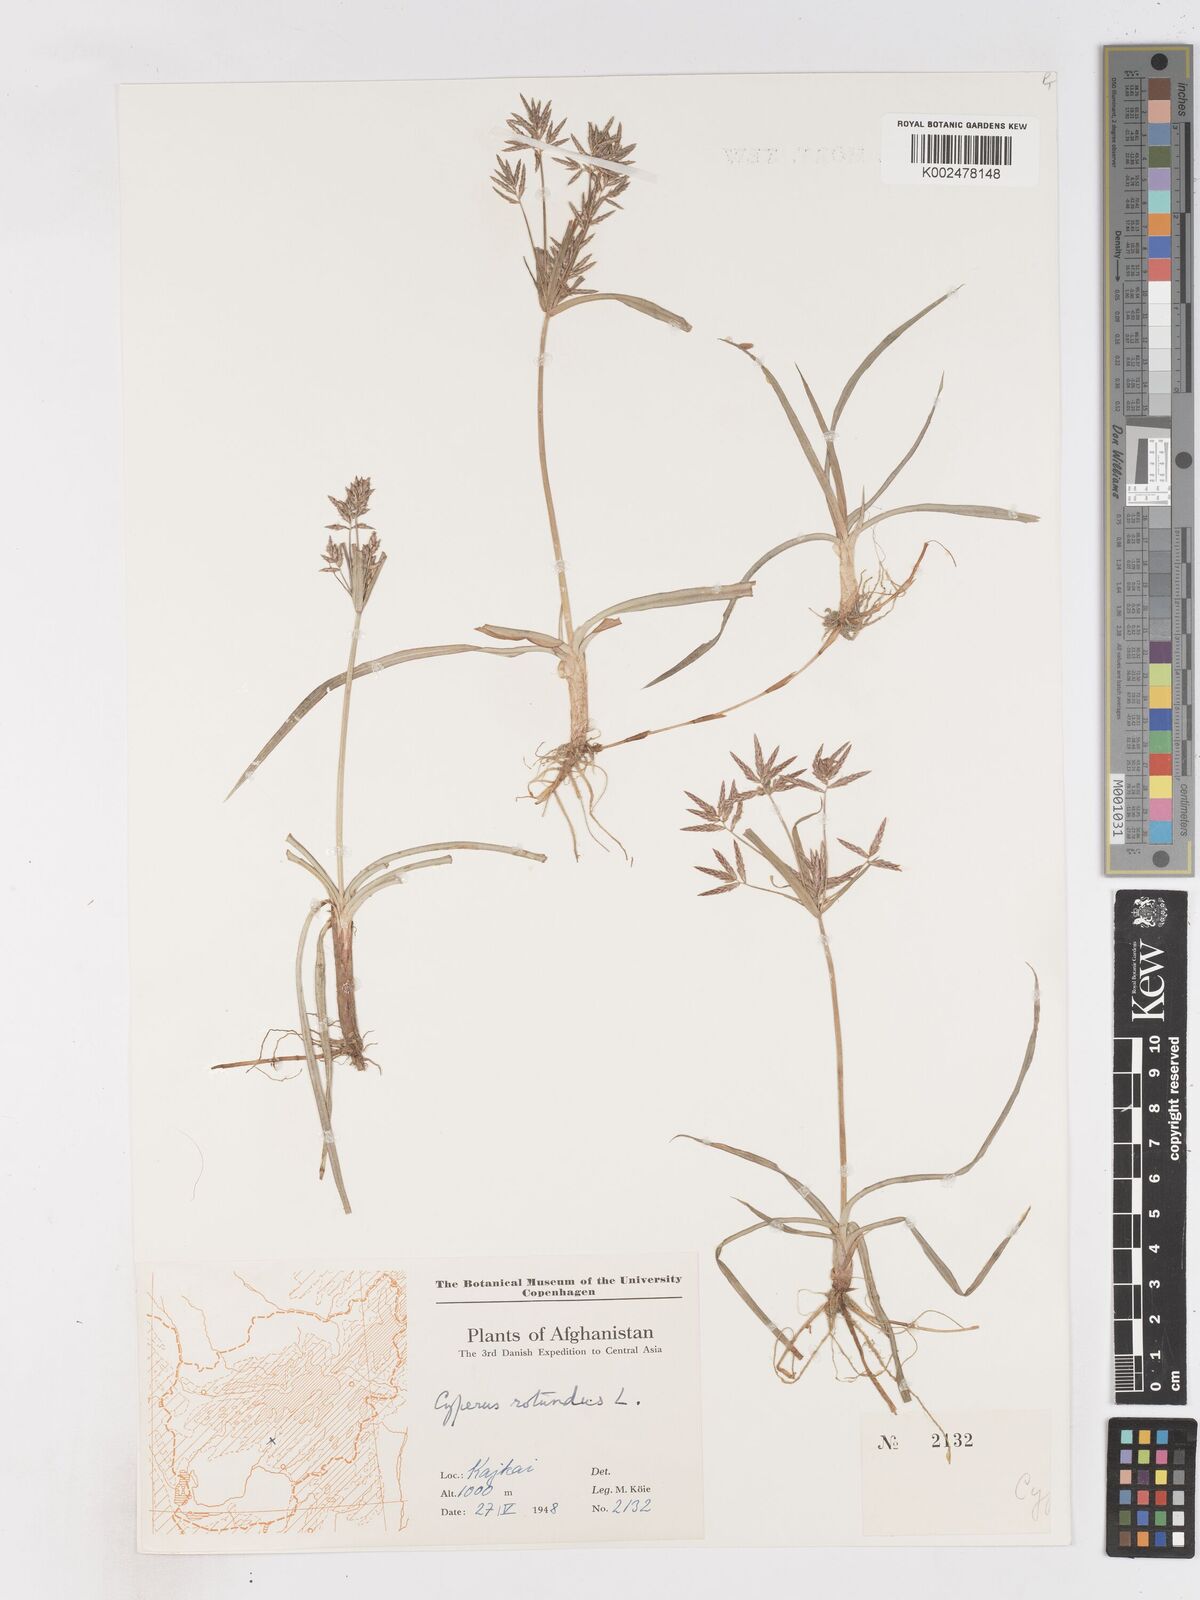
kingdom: Plantae
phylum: Tracheophyta
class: Liliopsida
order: Poales
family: Cyperaceae
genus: Cyperus
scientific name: Cyperus rotundus
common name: Nutgrass
